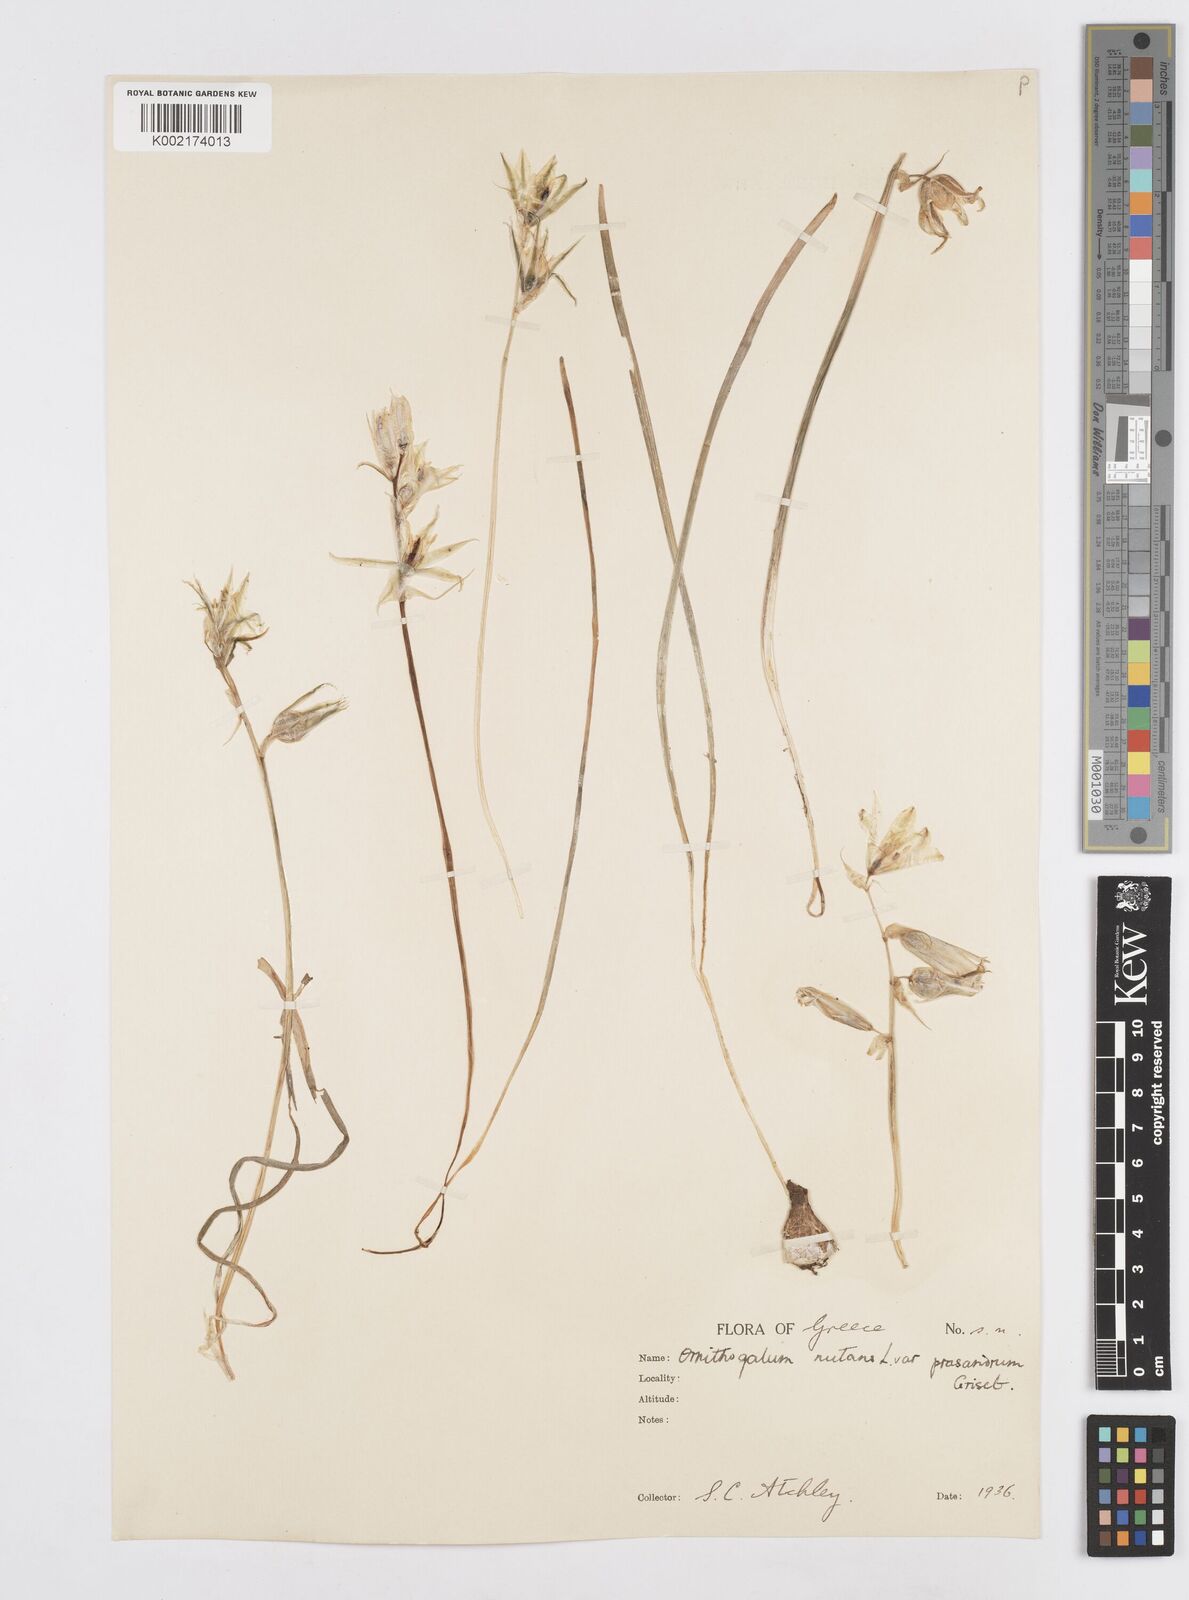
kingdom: Plantae
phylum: Tracheophyta
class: Liliopsida
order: Asparagales
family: Asparagaceae
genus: Ornithogalum
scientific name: Ornithogalum nutans
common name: Drooping star-of-bethlehem
